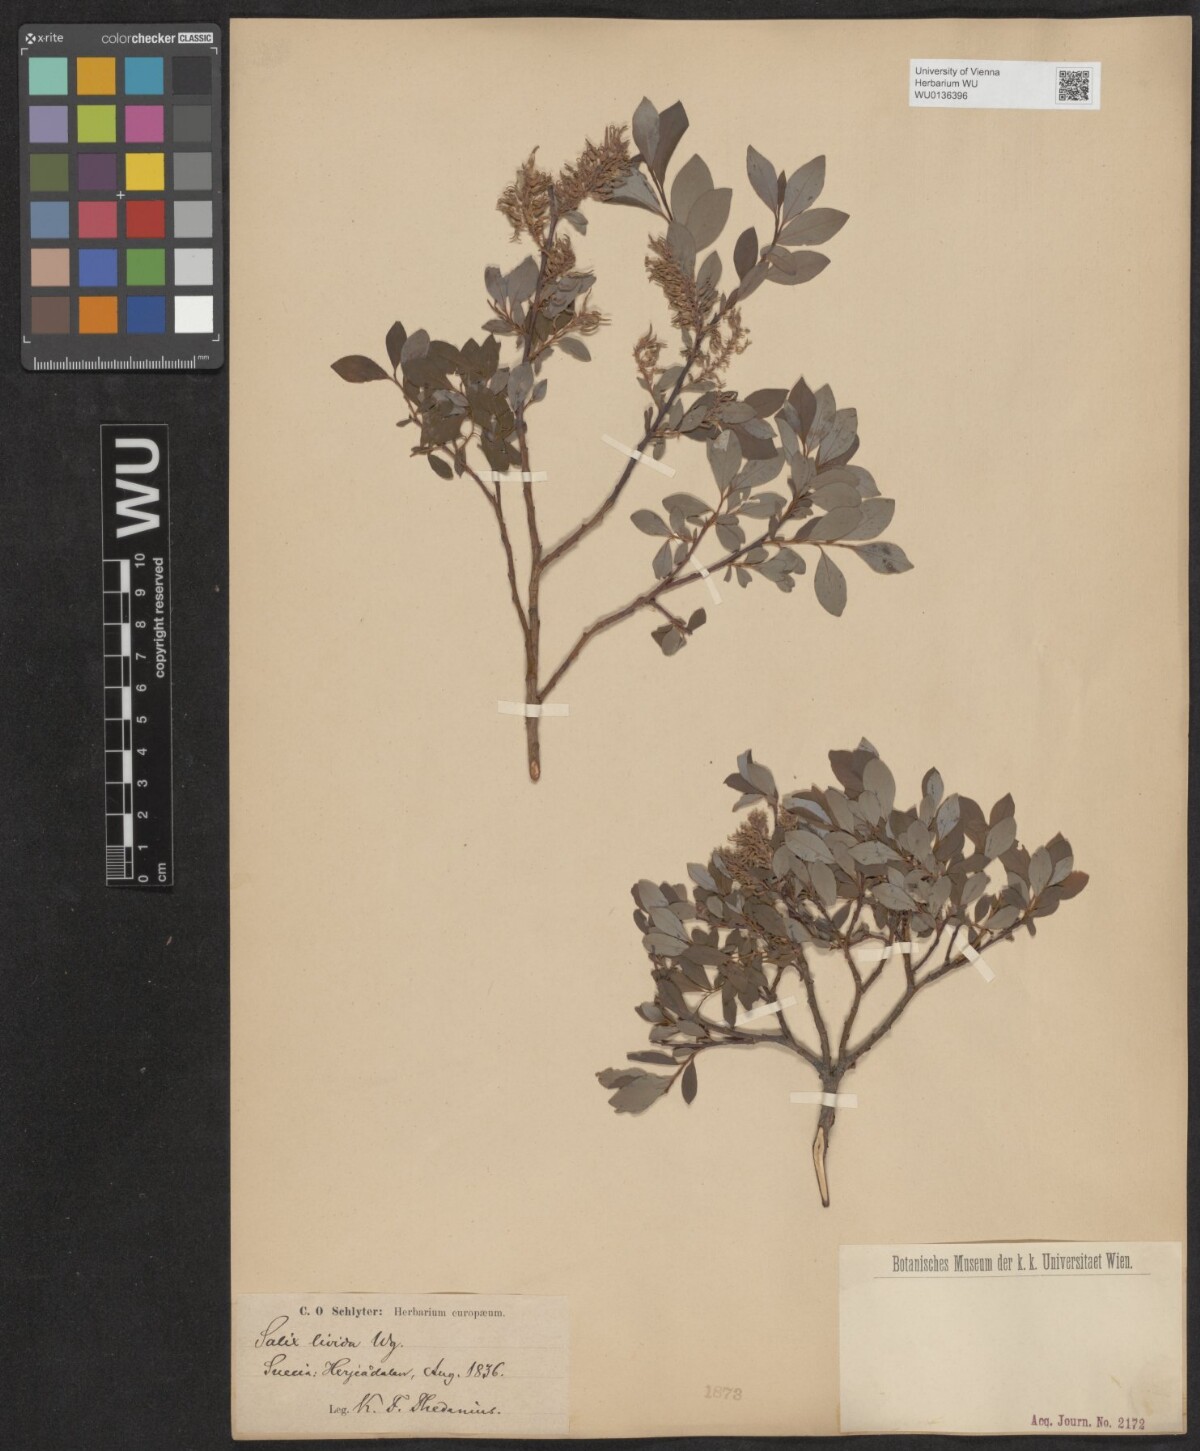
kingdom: Plantae
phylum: Tracheophyta
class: Magnoliopsida
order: Malpighiales
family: Salicaceae
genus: Salix
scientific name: Salix lanata
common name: Woolly willow
